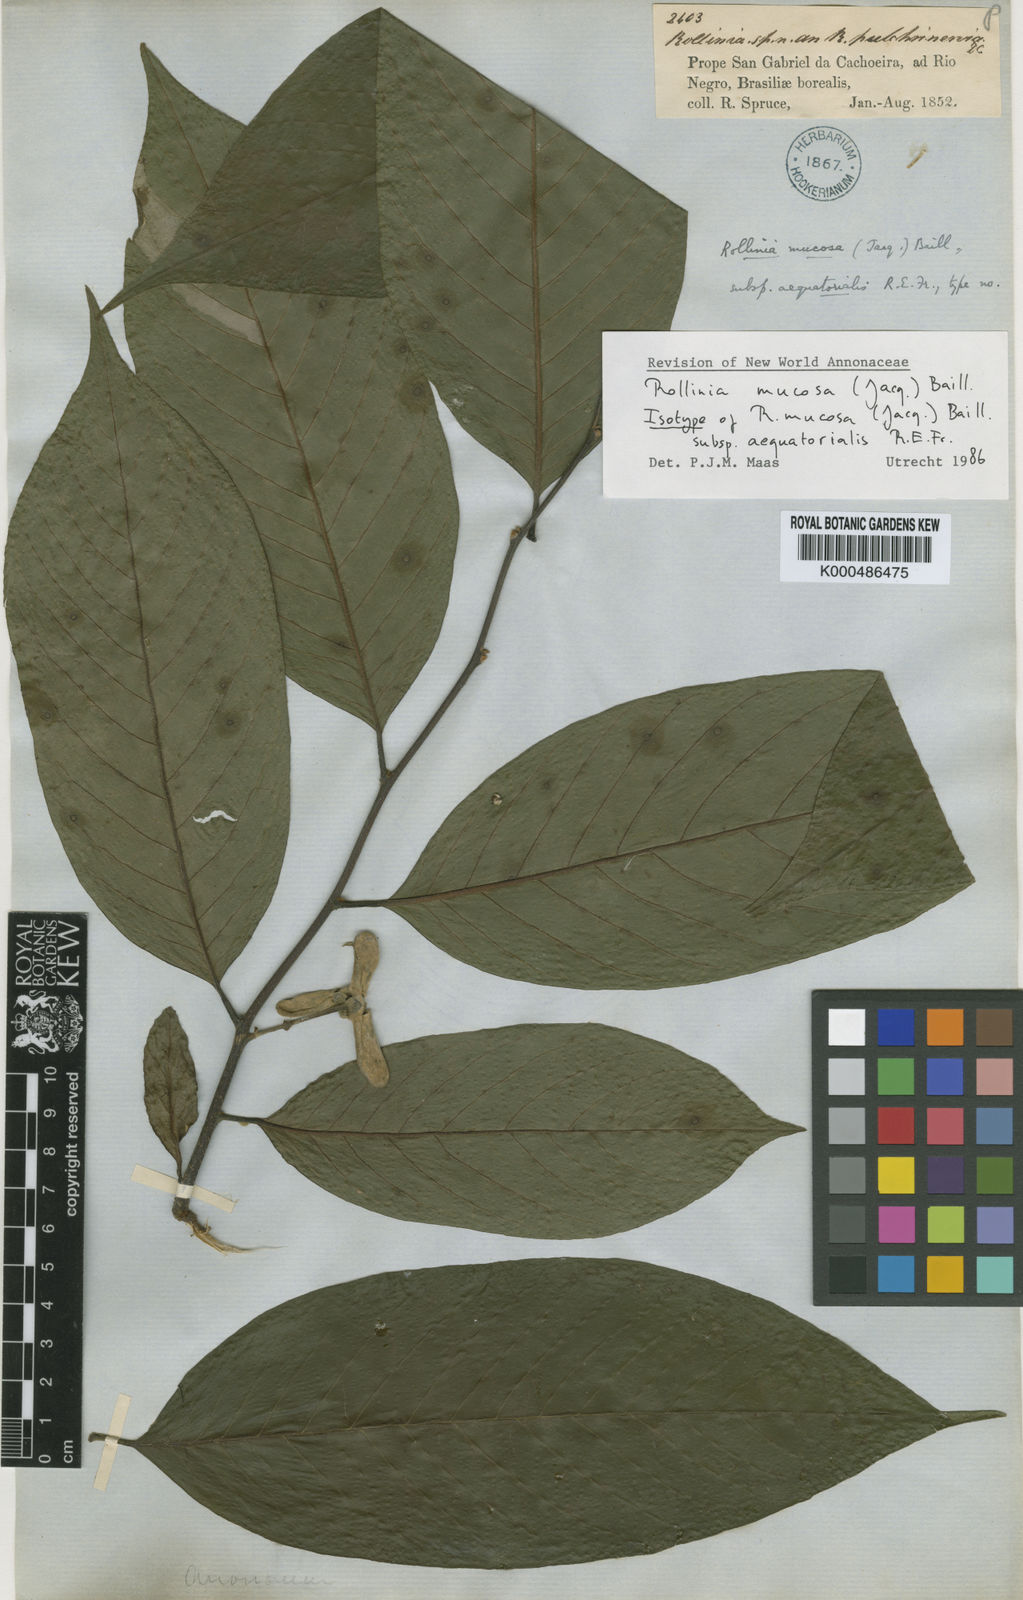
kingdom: Plantae
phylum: Tracheophyta
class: Magnoliopsida
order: Magnoliales
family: Annonaceae
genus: Annona
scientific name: Annona mucosa
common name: Sugar apple
